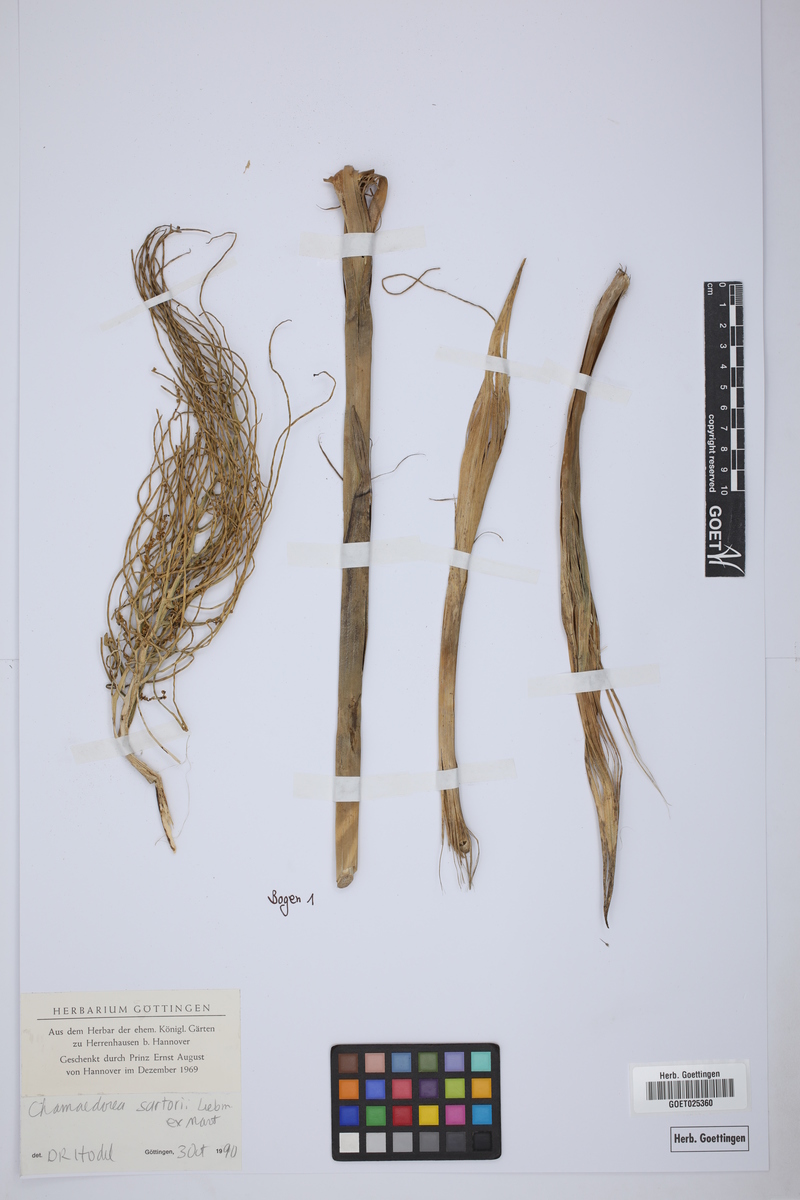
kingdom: Plantae
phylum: Tracheophyta
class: Liliopsida
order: Arecales
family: Arecaceae
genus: Chamaedorea
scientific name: Chamaedorea sartorii
